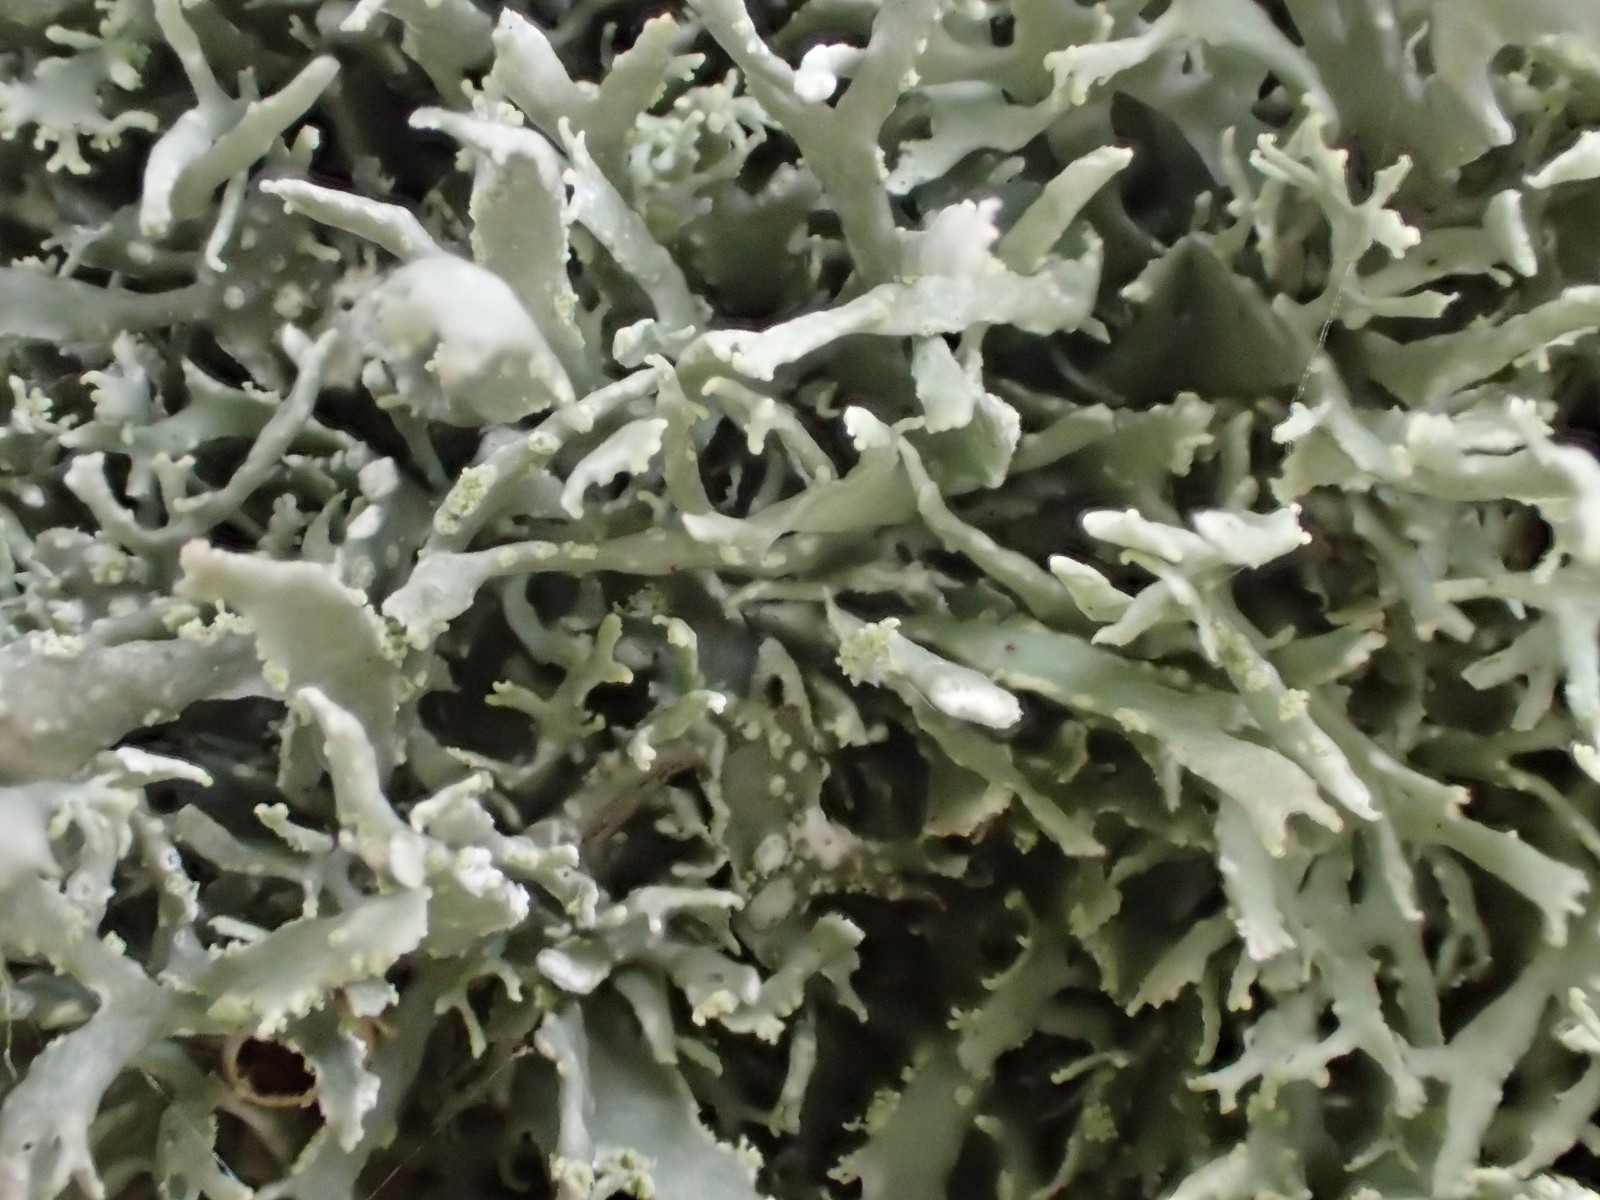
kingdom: Fungi
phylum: Ascomycota
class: Lecanoromycetes
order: Lecanorales
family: Ramalinaceae
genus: Ramalina
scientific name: Ramalina farinacea
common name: melet grenlav
